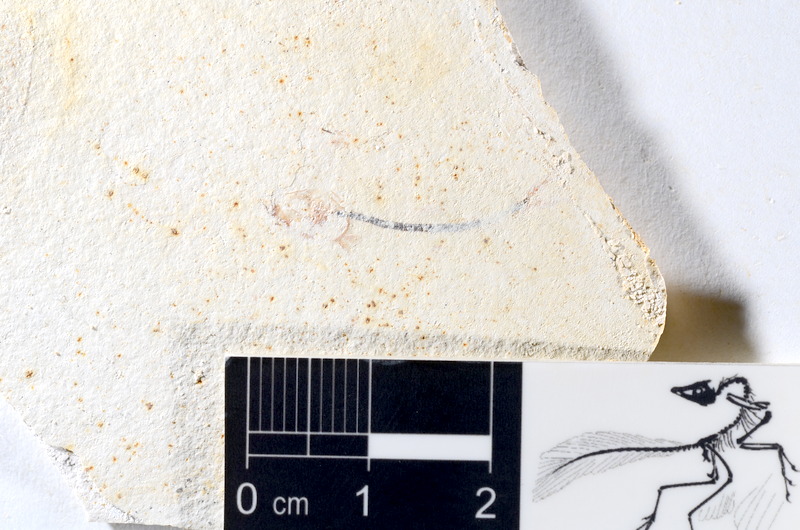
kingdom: Animalia
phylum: Chordata
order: Salmoniformes
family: Orthogonikleithridae
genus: Orthogonikleithrus
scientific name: Orthogonikleithrus hoelli
